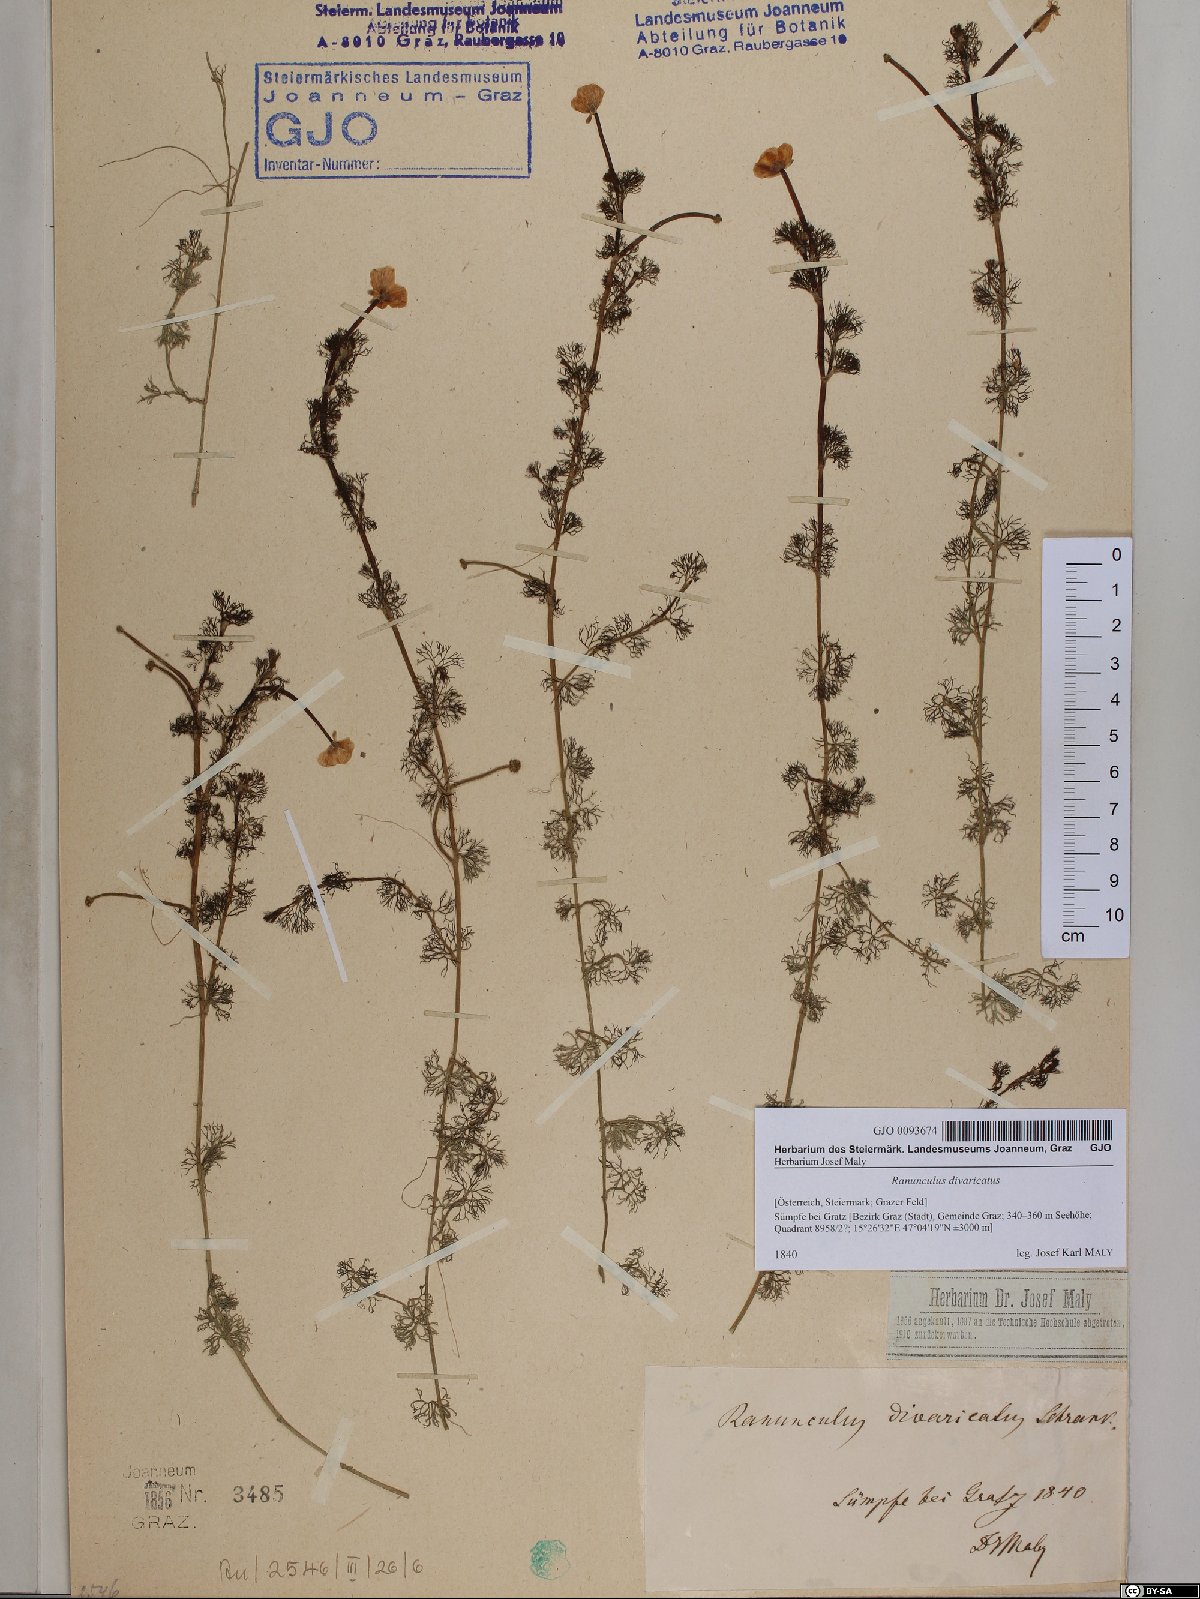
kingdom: Plantae
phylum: Tracheophyta
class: Magnoliopsida
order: Ranunculales
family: Ranunculaceae
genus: Ranunculus
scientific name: Ranunculus trichophyllus
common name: Thread-leaved water-crowfoot
